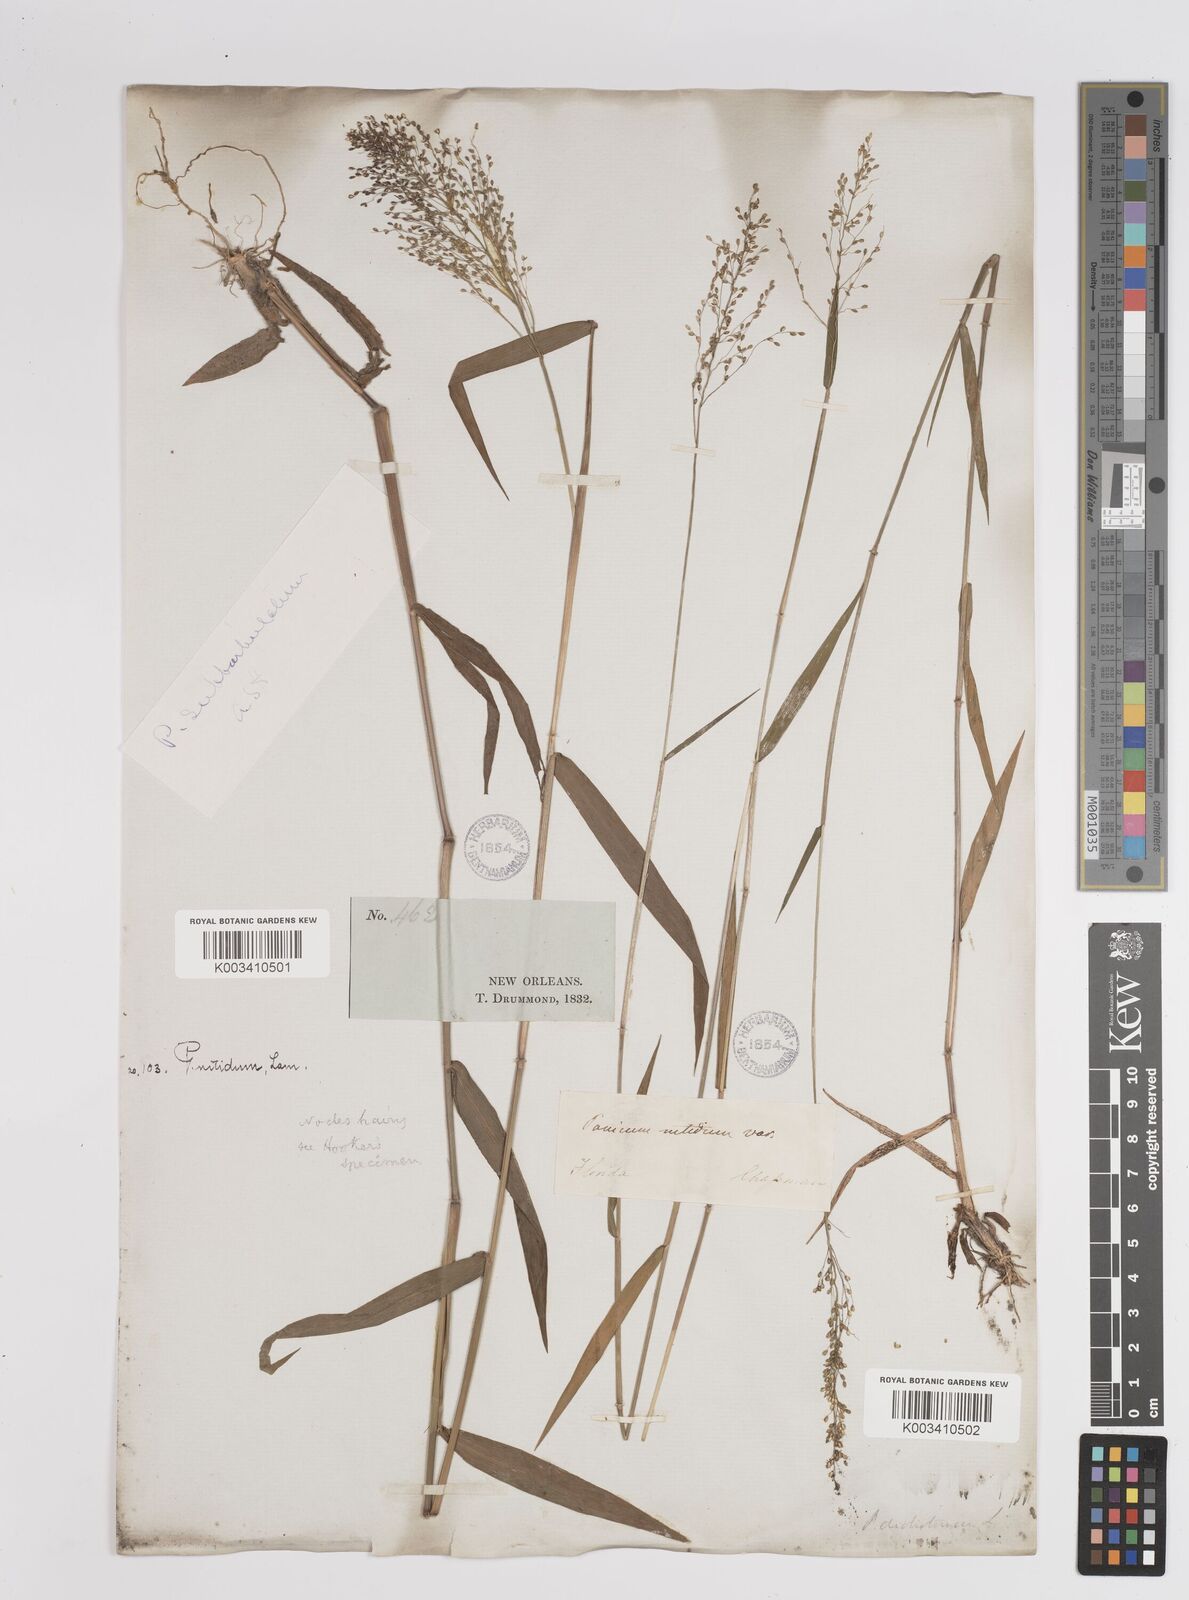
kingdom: Plantae
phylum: Tracheophyta
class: Liliopsida
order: Poales
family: Poaceae
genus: Dichanthelium
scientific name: Dichanthelium polyanthes
